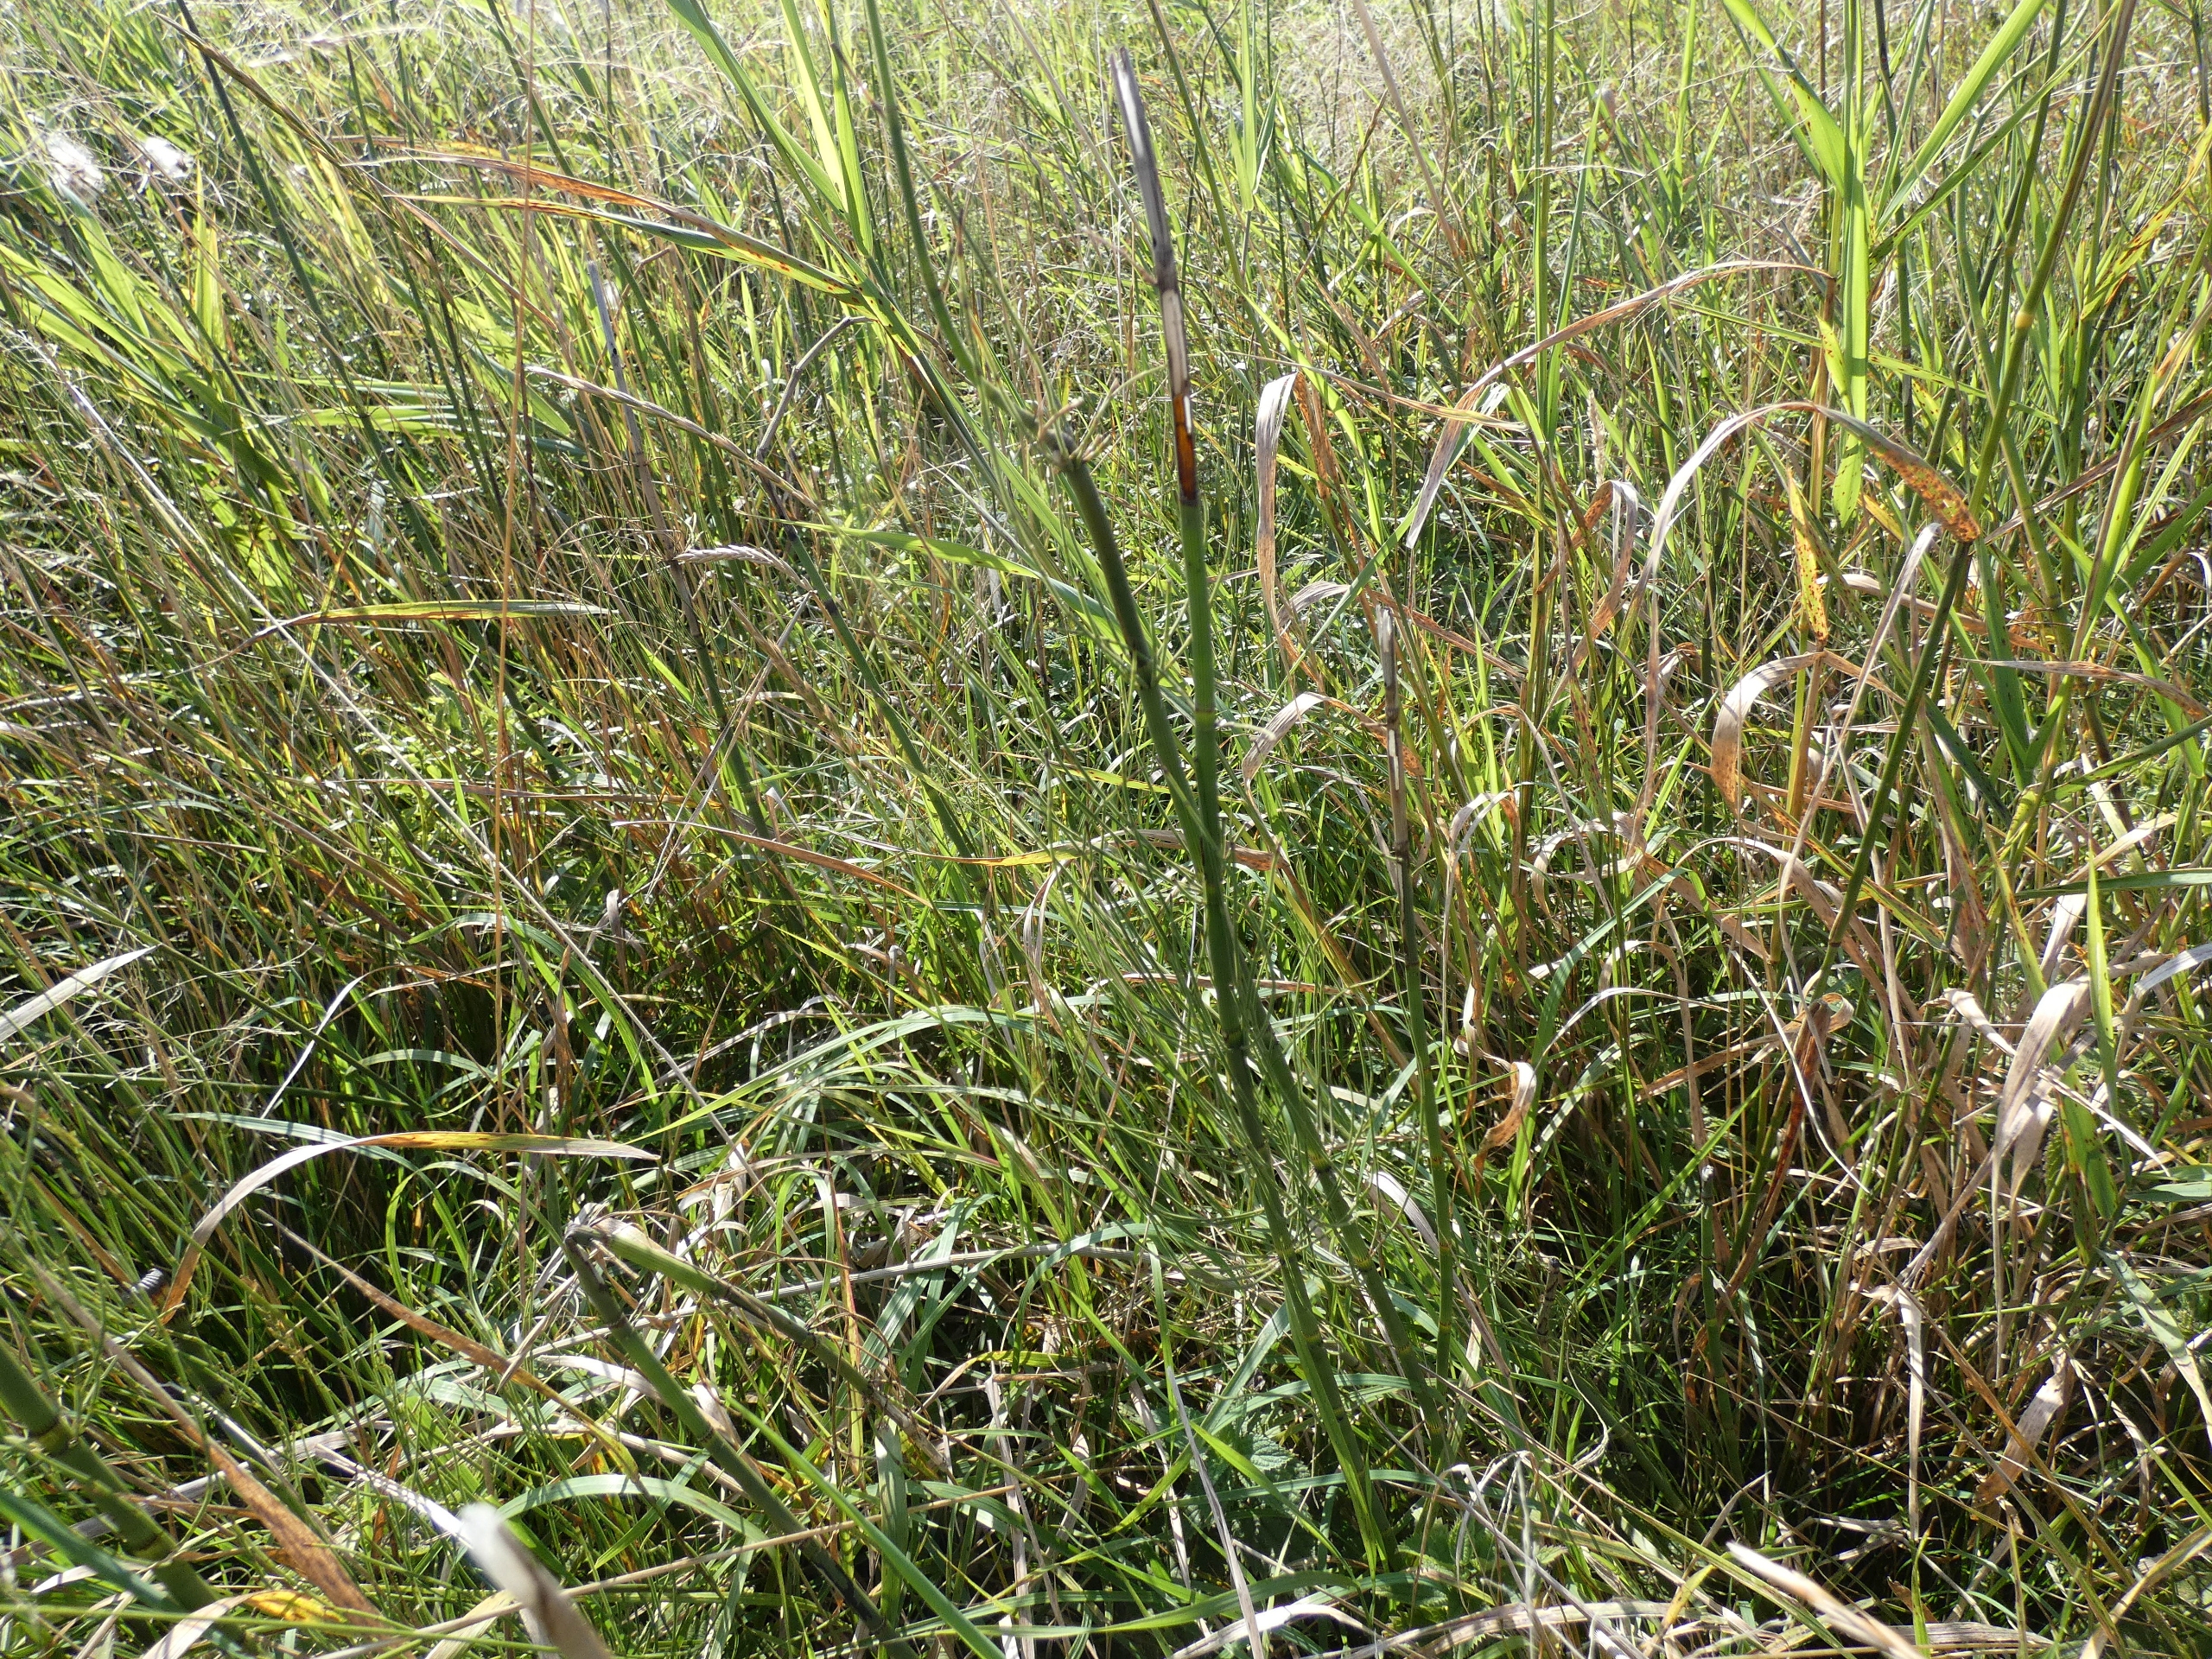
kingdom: Plantae
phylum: Tracheophyta
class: Polypodiopsida
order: Equisetales
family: Equisetaceae
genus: Equisetum
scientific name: Equisetum fluviatile
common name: Dynd-padderok
